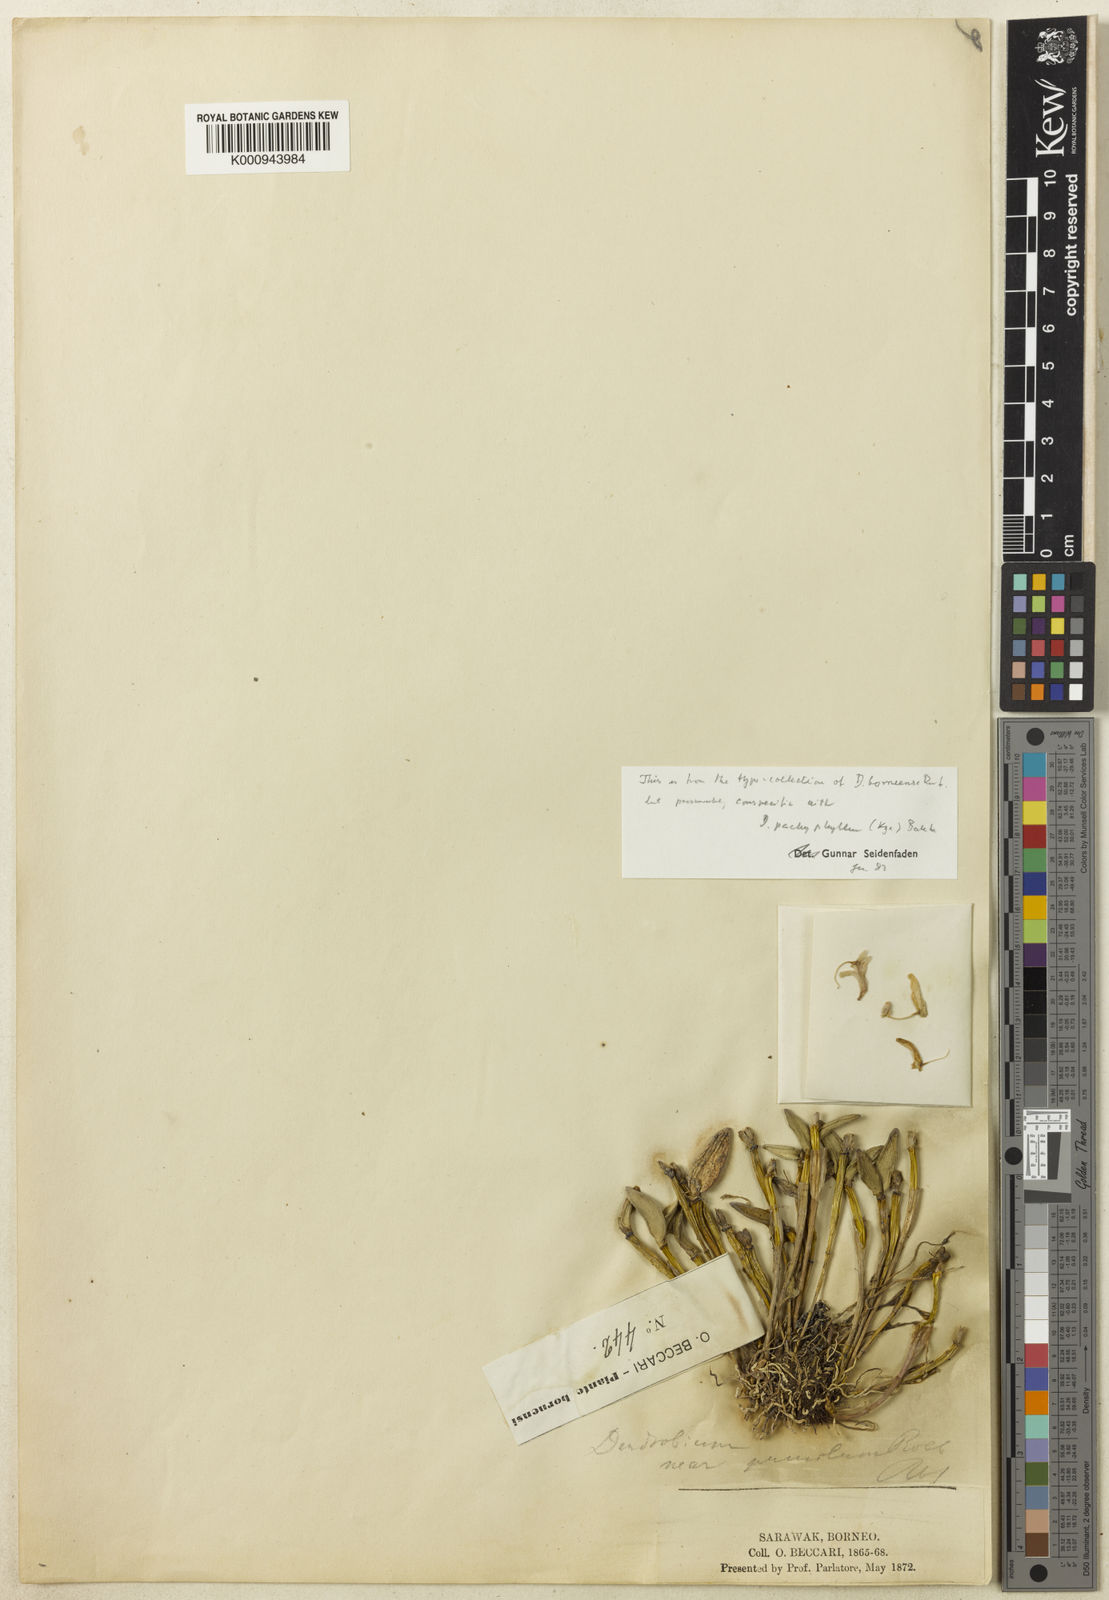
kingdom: Plantae
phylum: Tracheophyta
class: Liliopsida
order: Asparagales
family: Orchidaceae
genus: Dendrobium
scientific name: Dendrobium pachyphyllum
